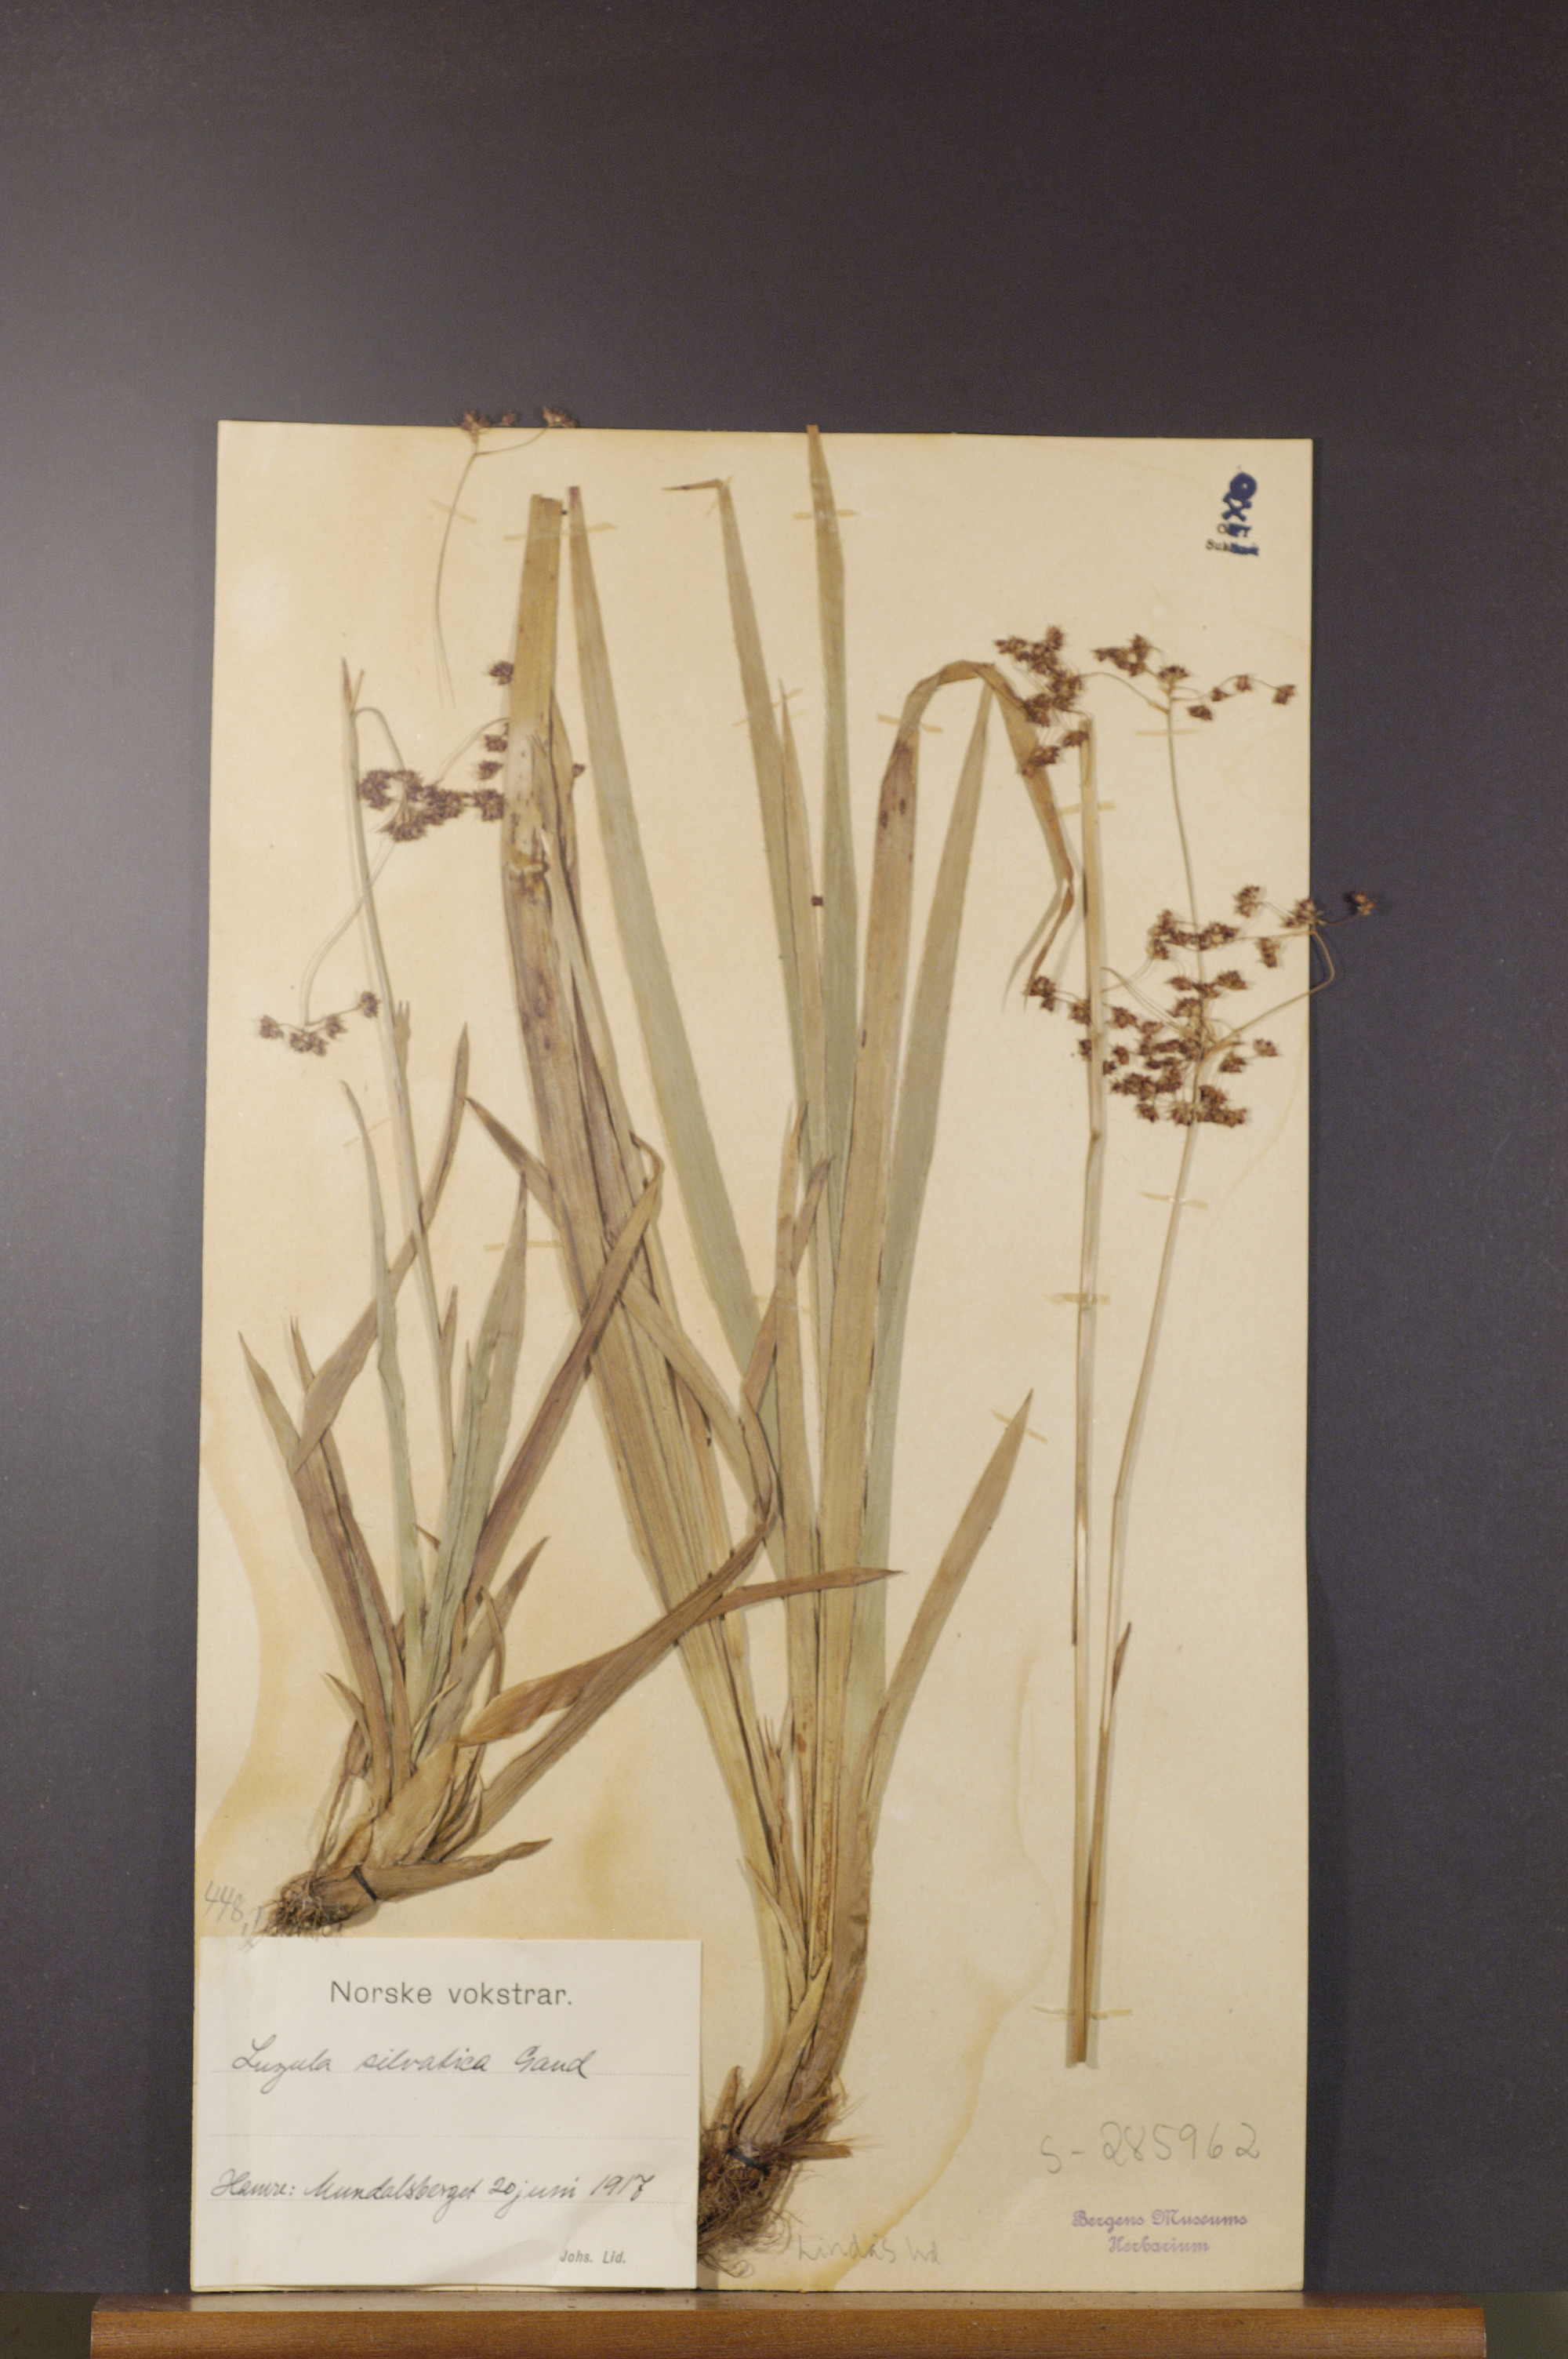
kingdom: Plantae
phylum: Tracheophyta
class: Liliopsida
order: Poales
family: Juncaceae
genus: Luzula
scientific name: Luzula sylvatica
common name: Great wood-rush
